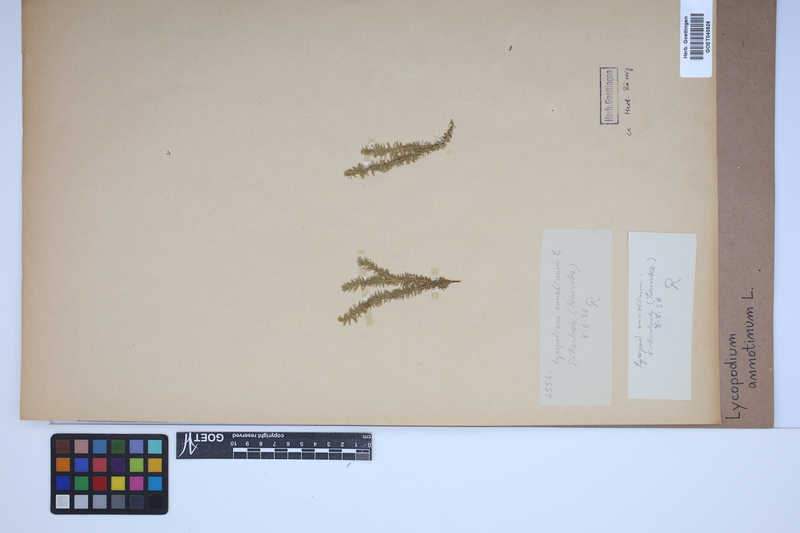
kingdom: Plantae
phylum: Tracheophyta
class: Lycopodiopsida
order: Lycopodiales
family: Lycopodiaceae
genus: Spinulum
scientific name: Spinulum annotinum
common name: Interrupted club-moss
